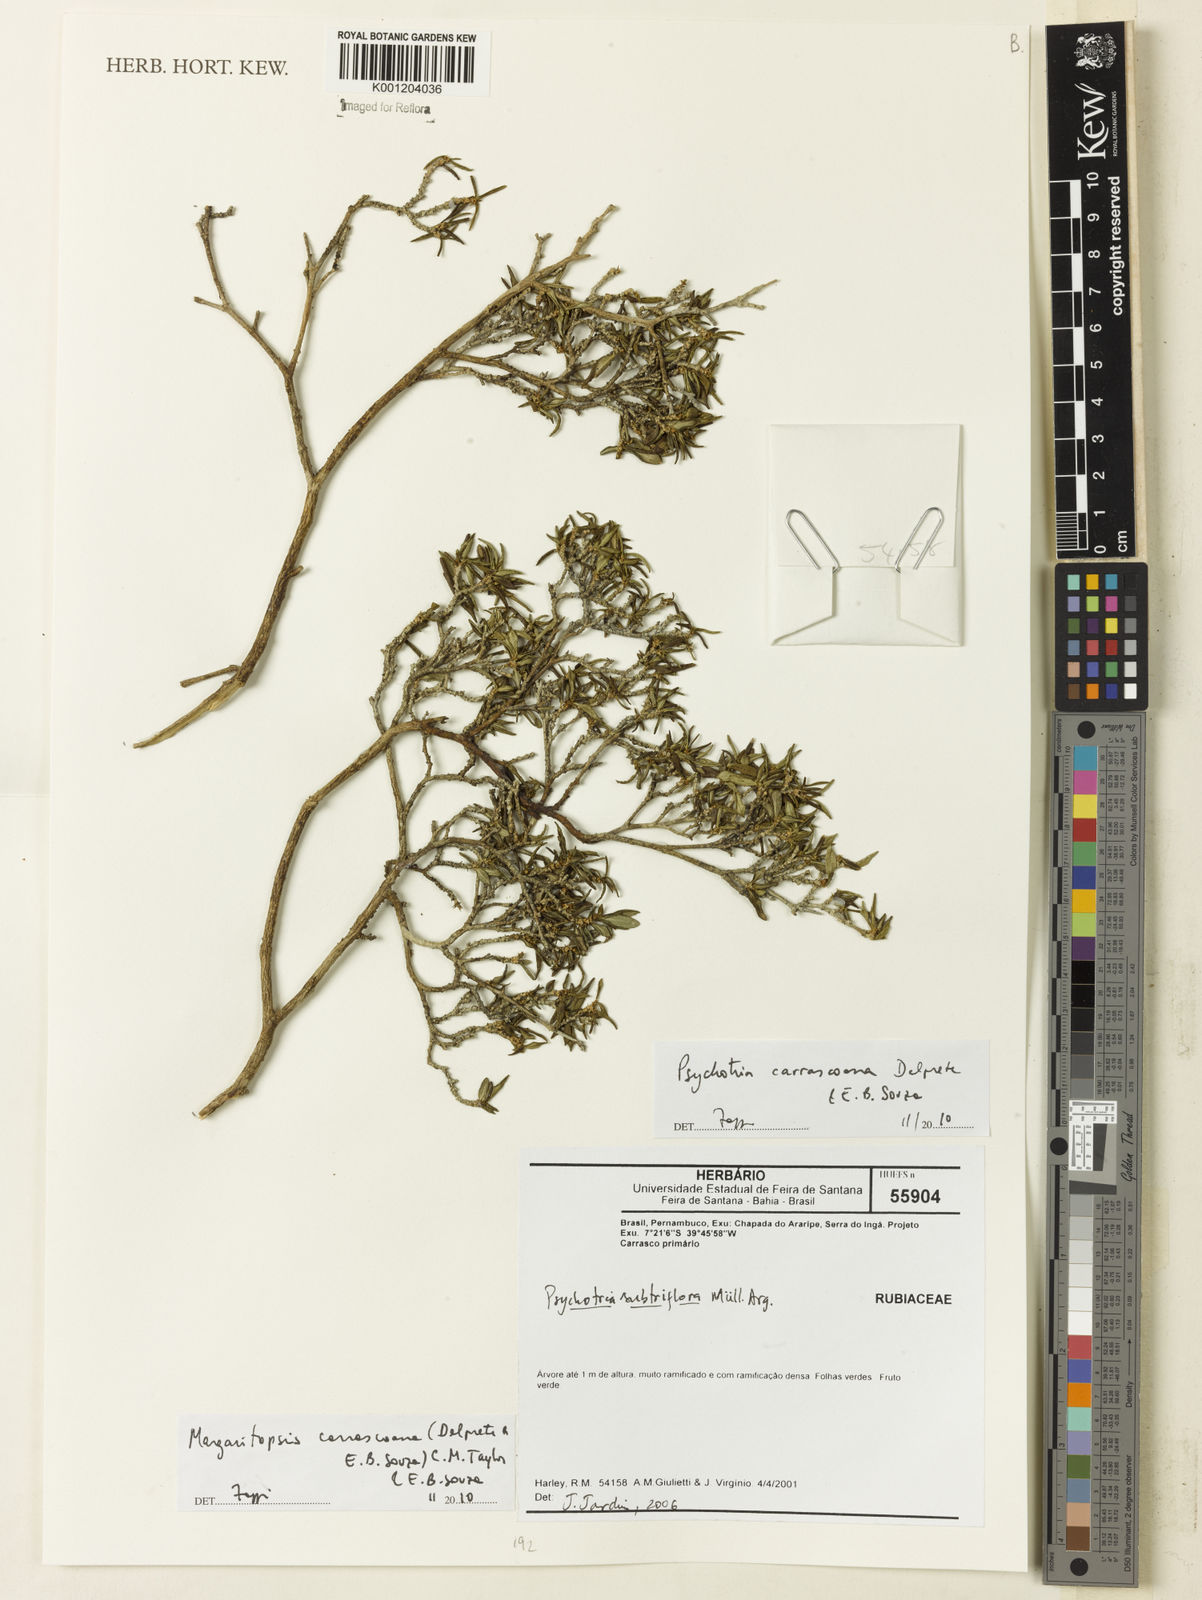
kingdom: Plantae
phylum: Tracheophyta
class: Magnoliopsida
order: Gentianales
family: Rubiaceae
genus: Eumachia
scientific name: Eumachia depauperata
